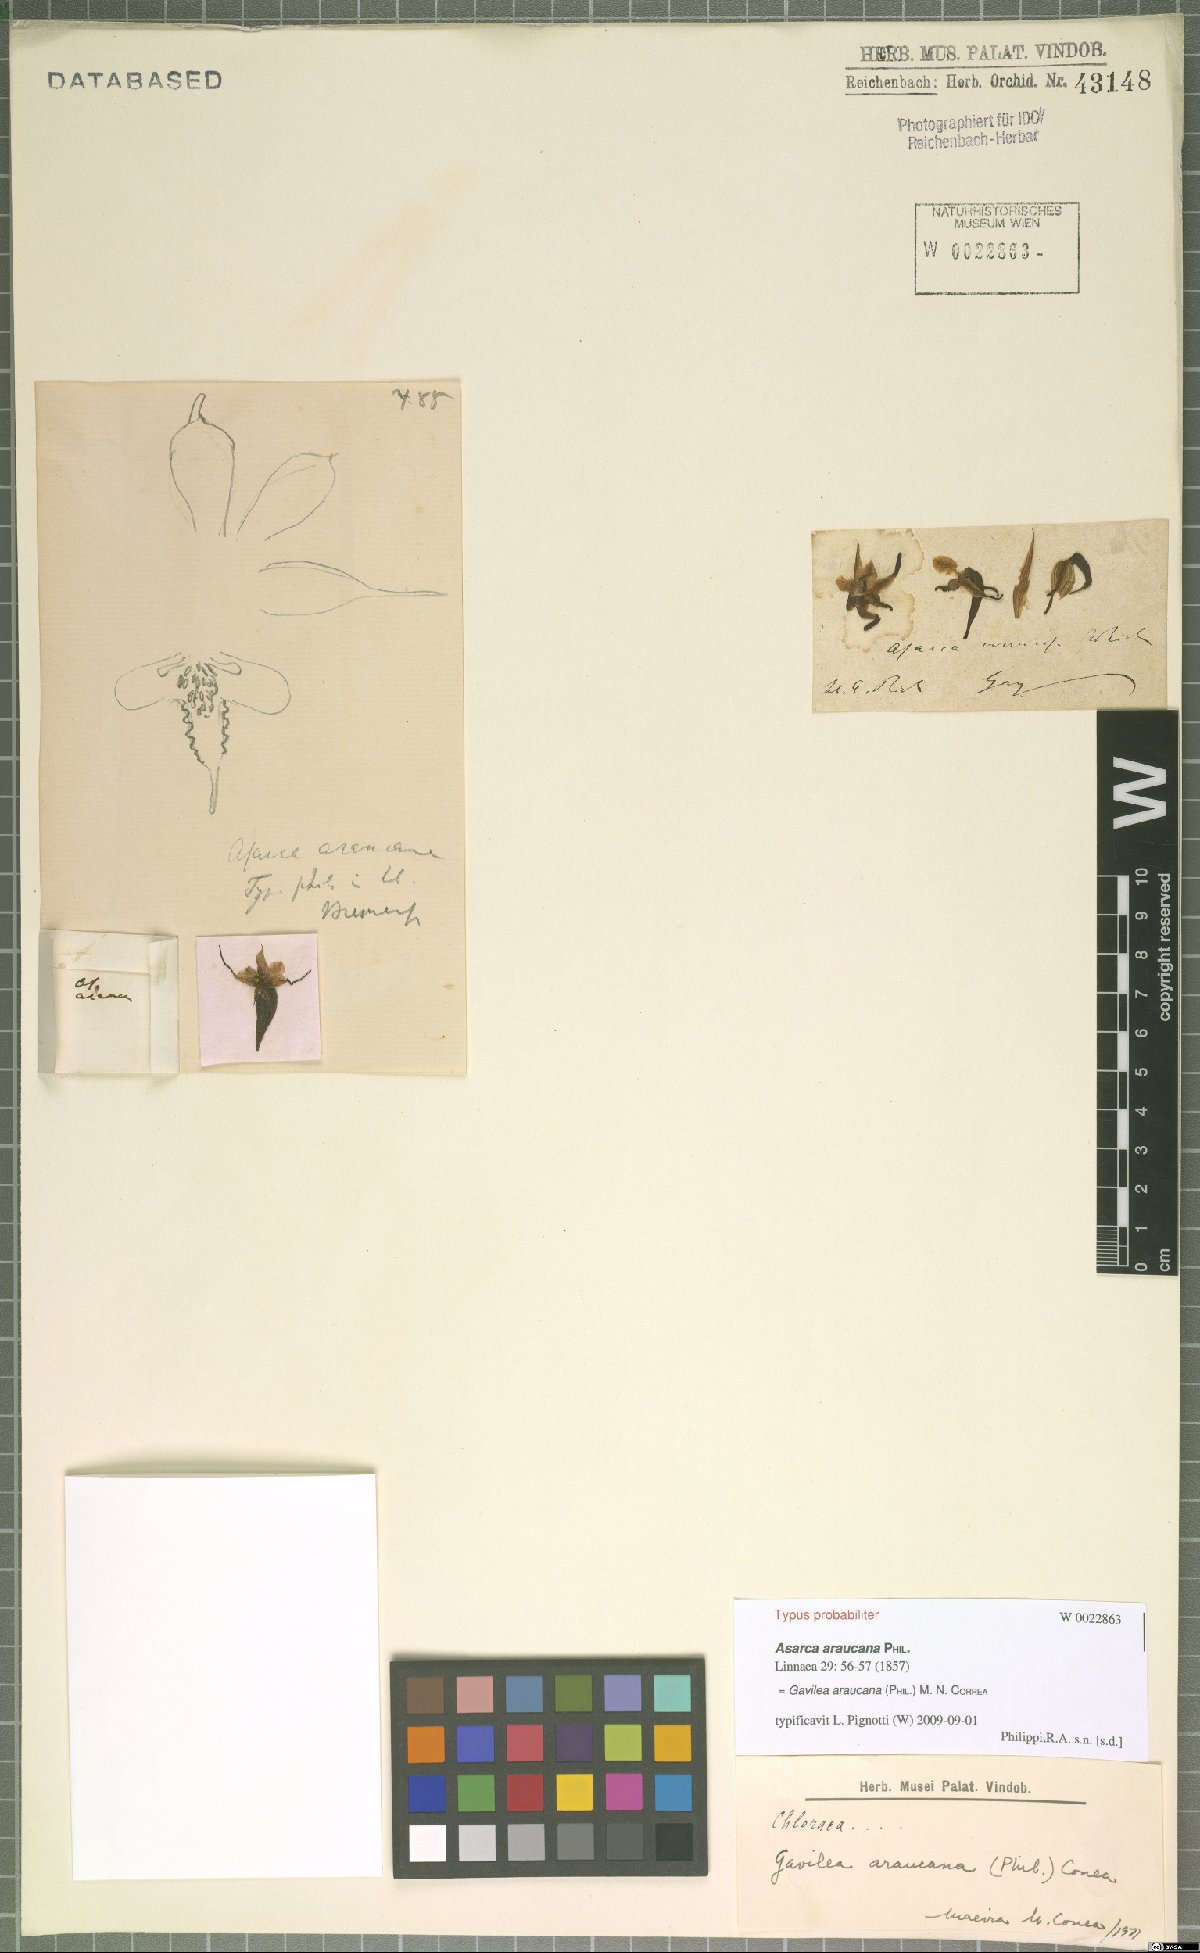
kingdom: Plantae
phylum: Tracheophyta
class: Liliopsida
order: Asparagales
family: Orchidaceae
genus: Gavilea
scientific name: Gavilea araucana
